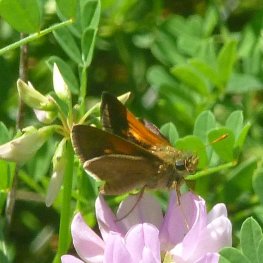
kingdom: Animalia
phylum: Arthropoda
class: Insecta
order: Lepidoptera
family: Hesperiidae
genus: Polites
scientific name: Polites themistocles
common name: Tawny-edged Skipper
